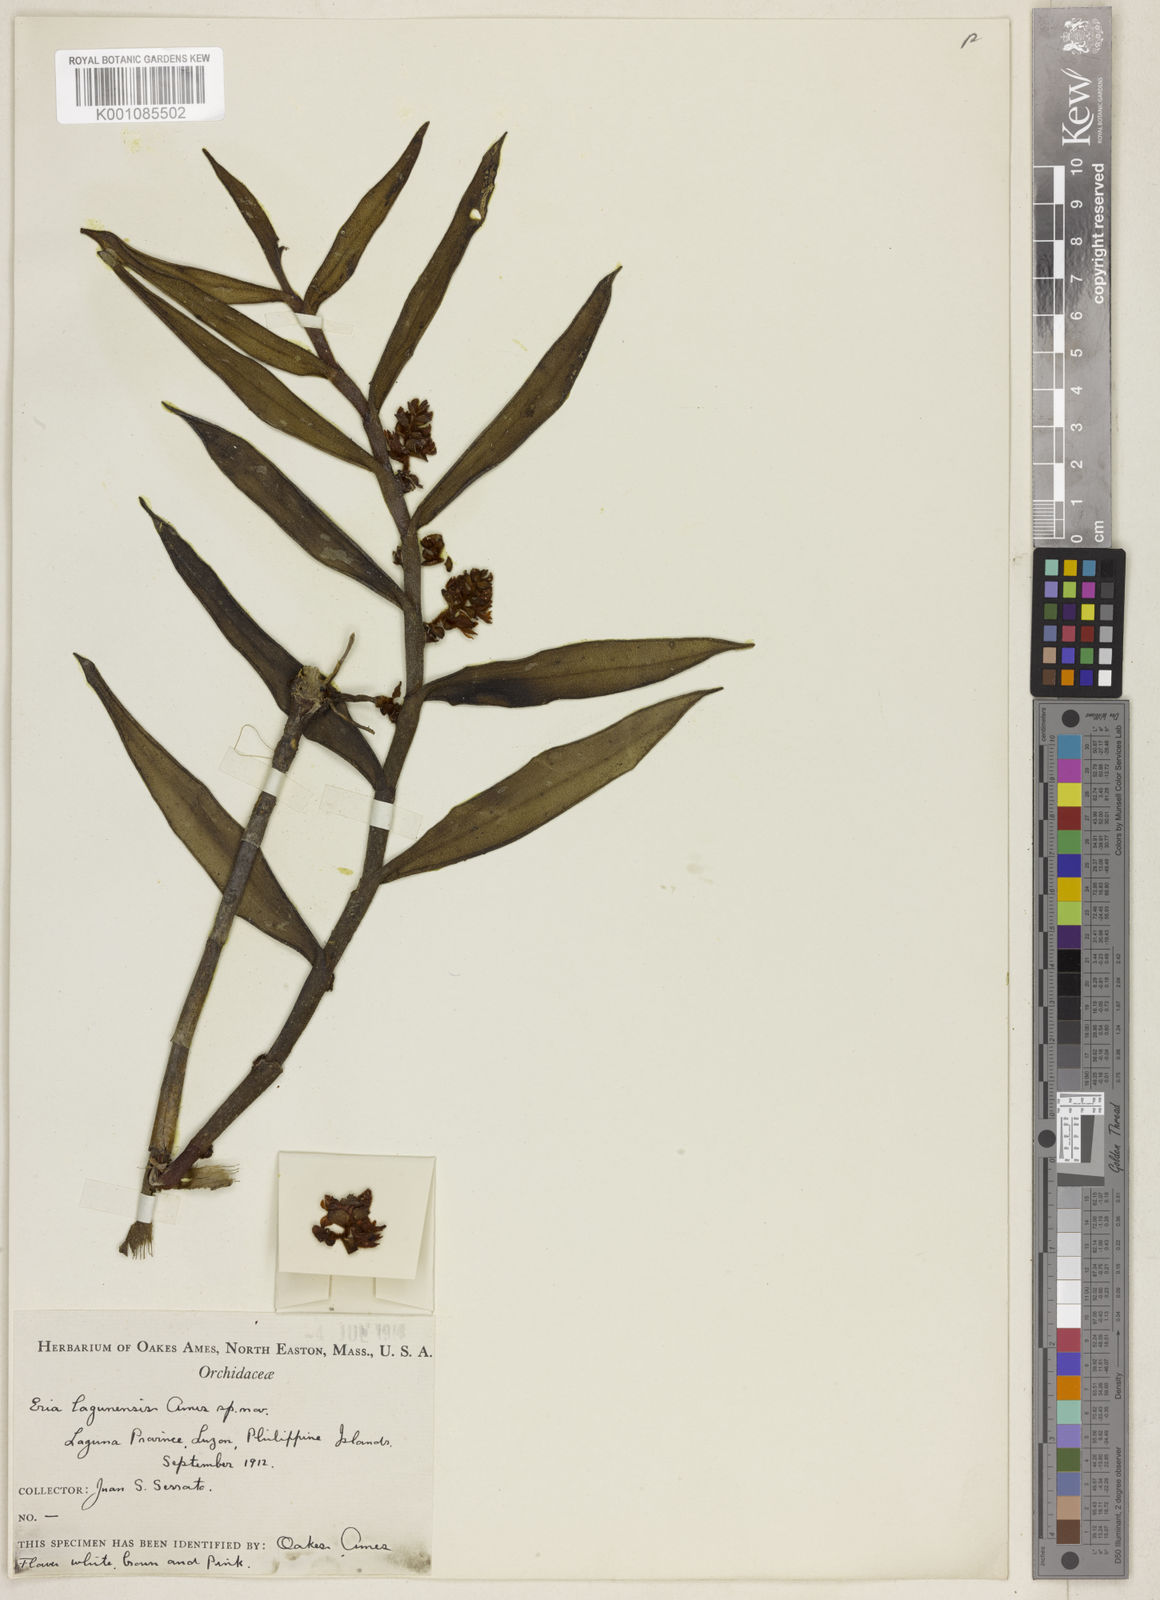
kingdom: Plantae
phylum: Tracheophyta
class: Liliopsida
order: Asparagales
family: Orchidaceae
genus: Trichotosia
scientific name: Trichotosia lagunensis
